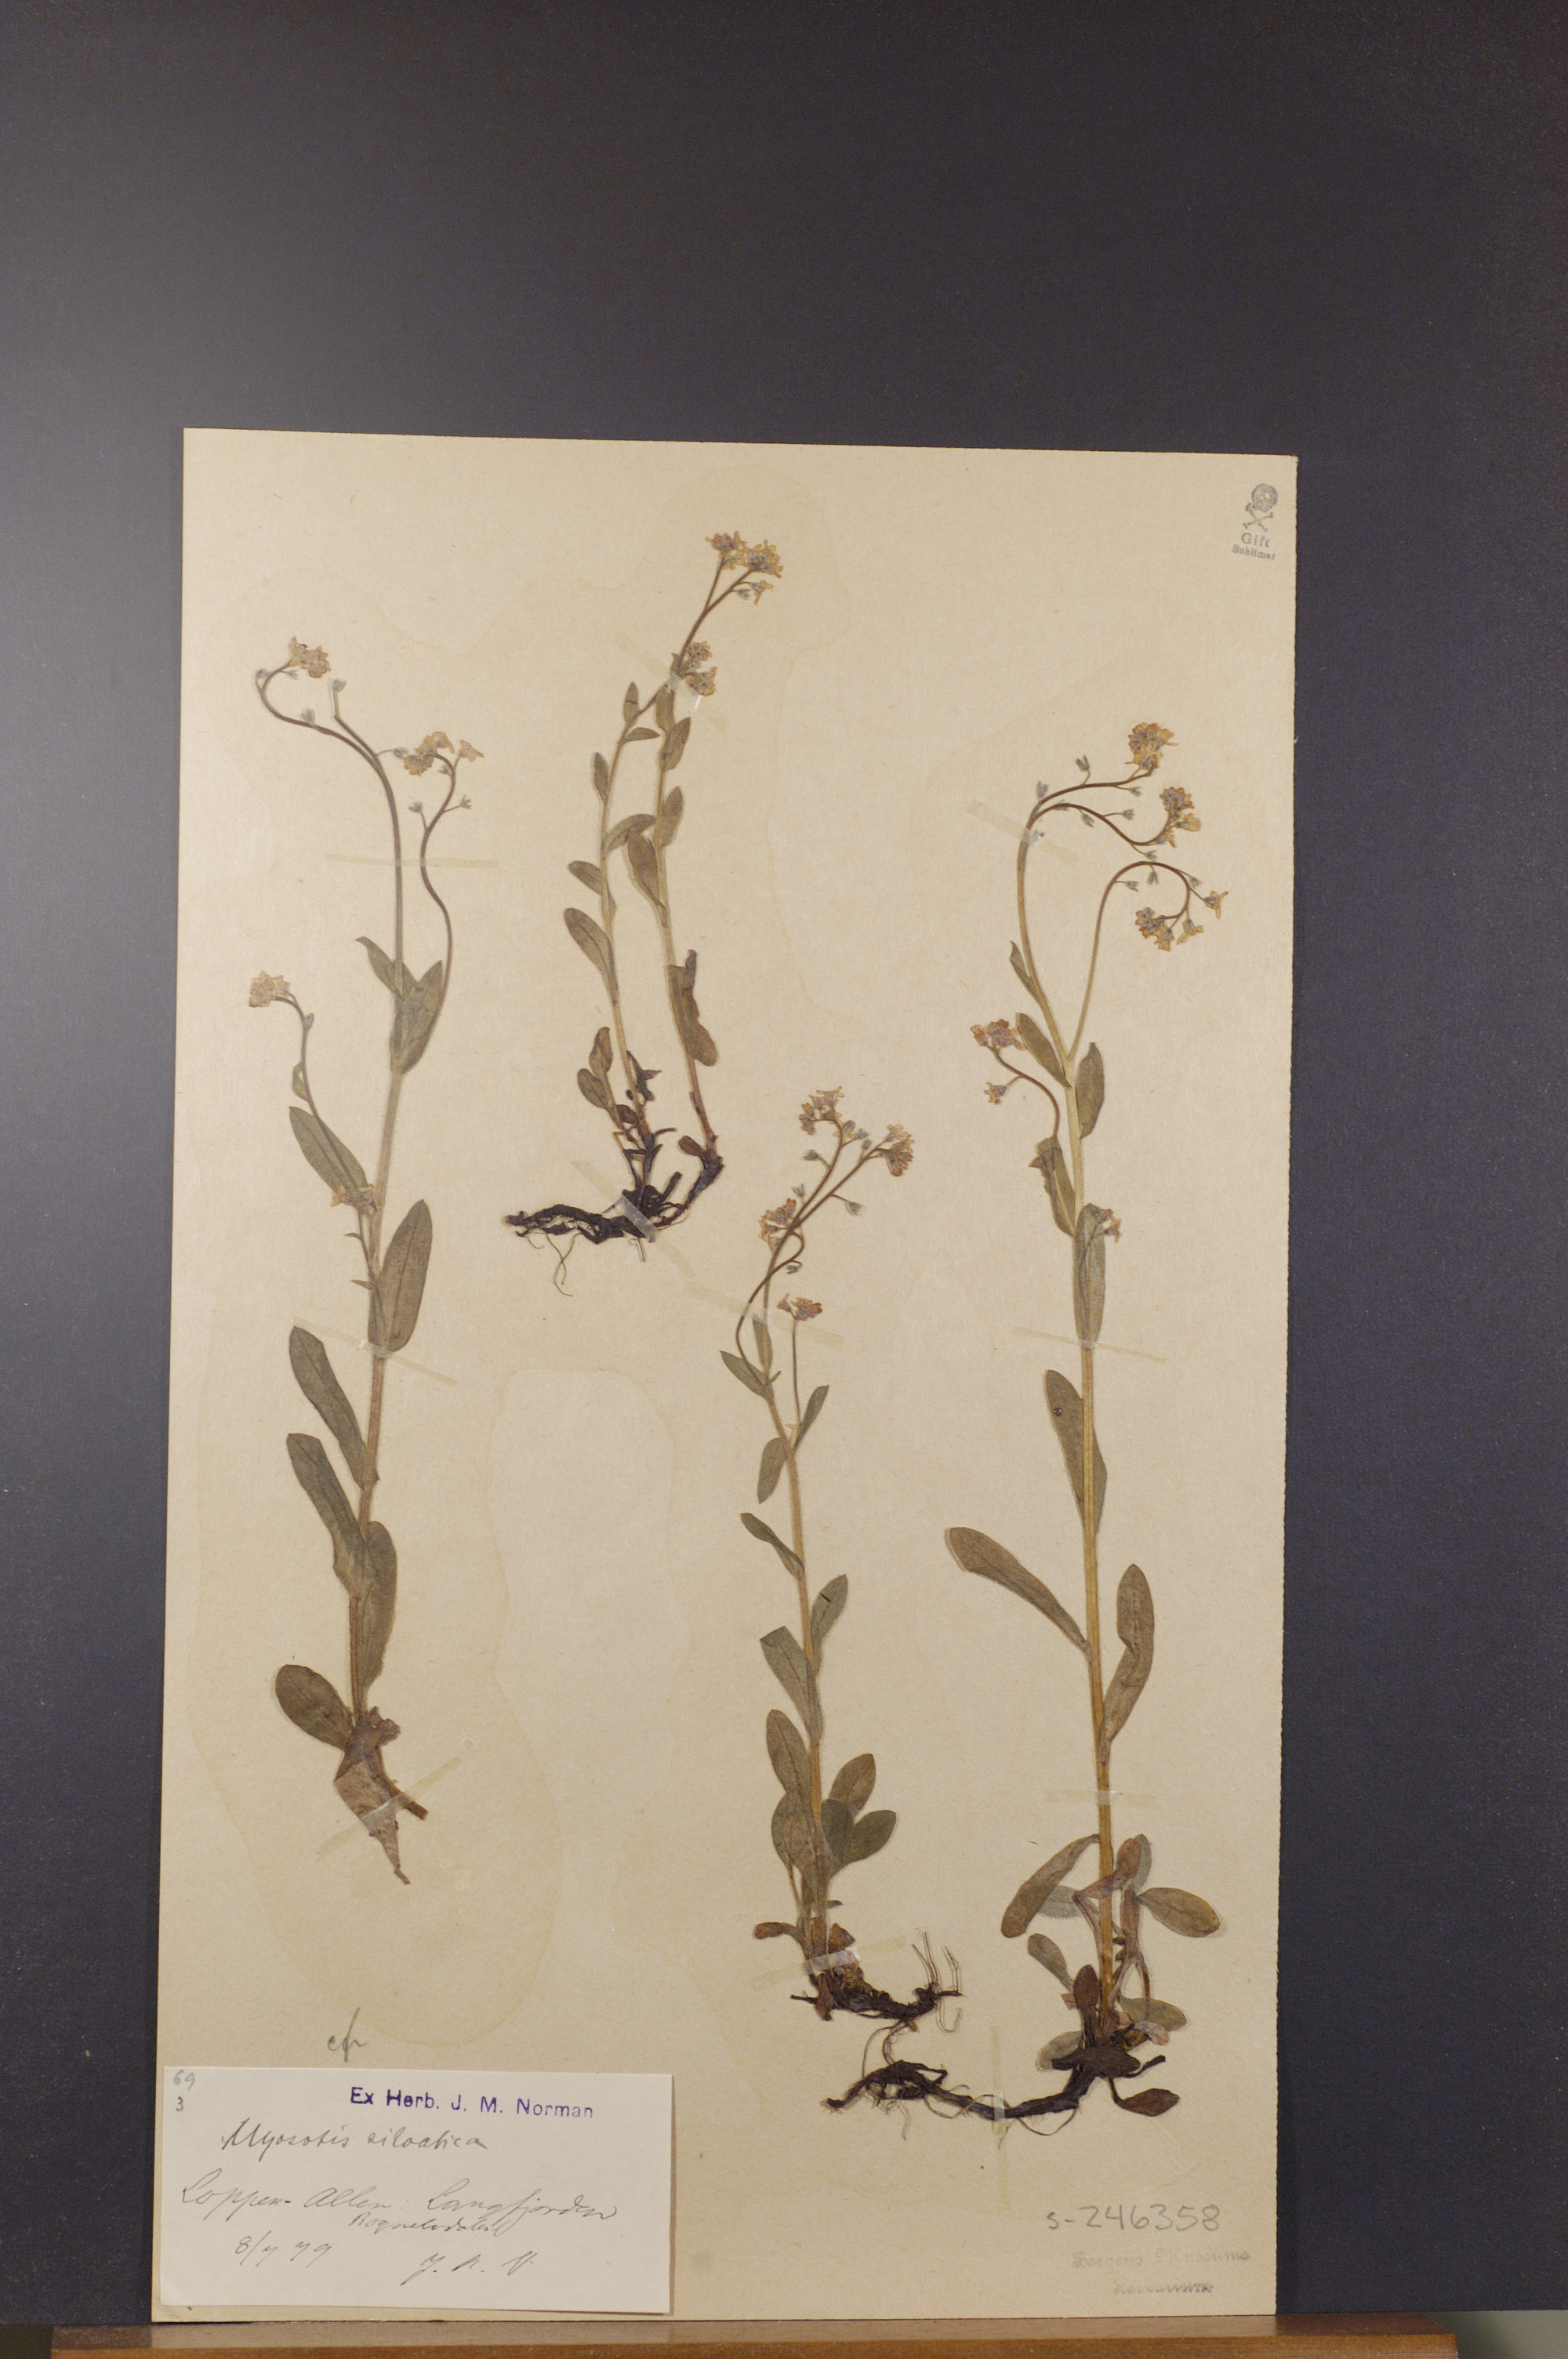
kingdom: Plantae
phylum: Tracheophyta
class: Magnoliopsida
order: Boraginales
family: Boraginaceae
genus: Myosotis
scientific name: Myosotis decumbens
